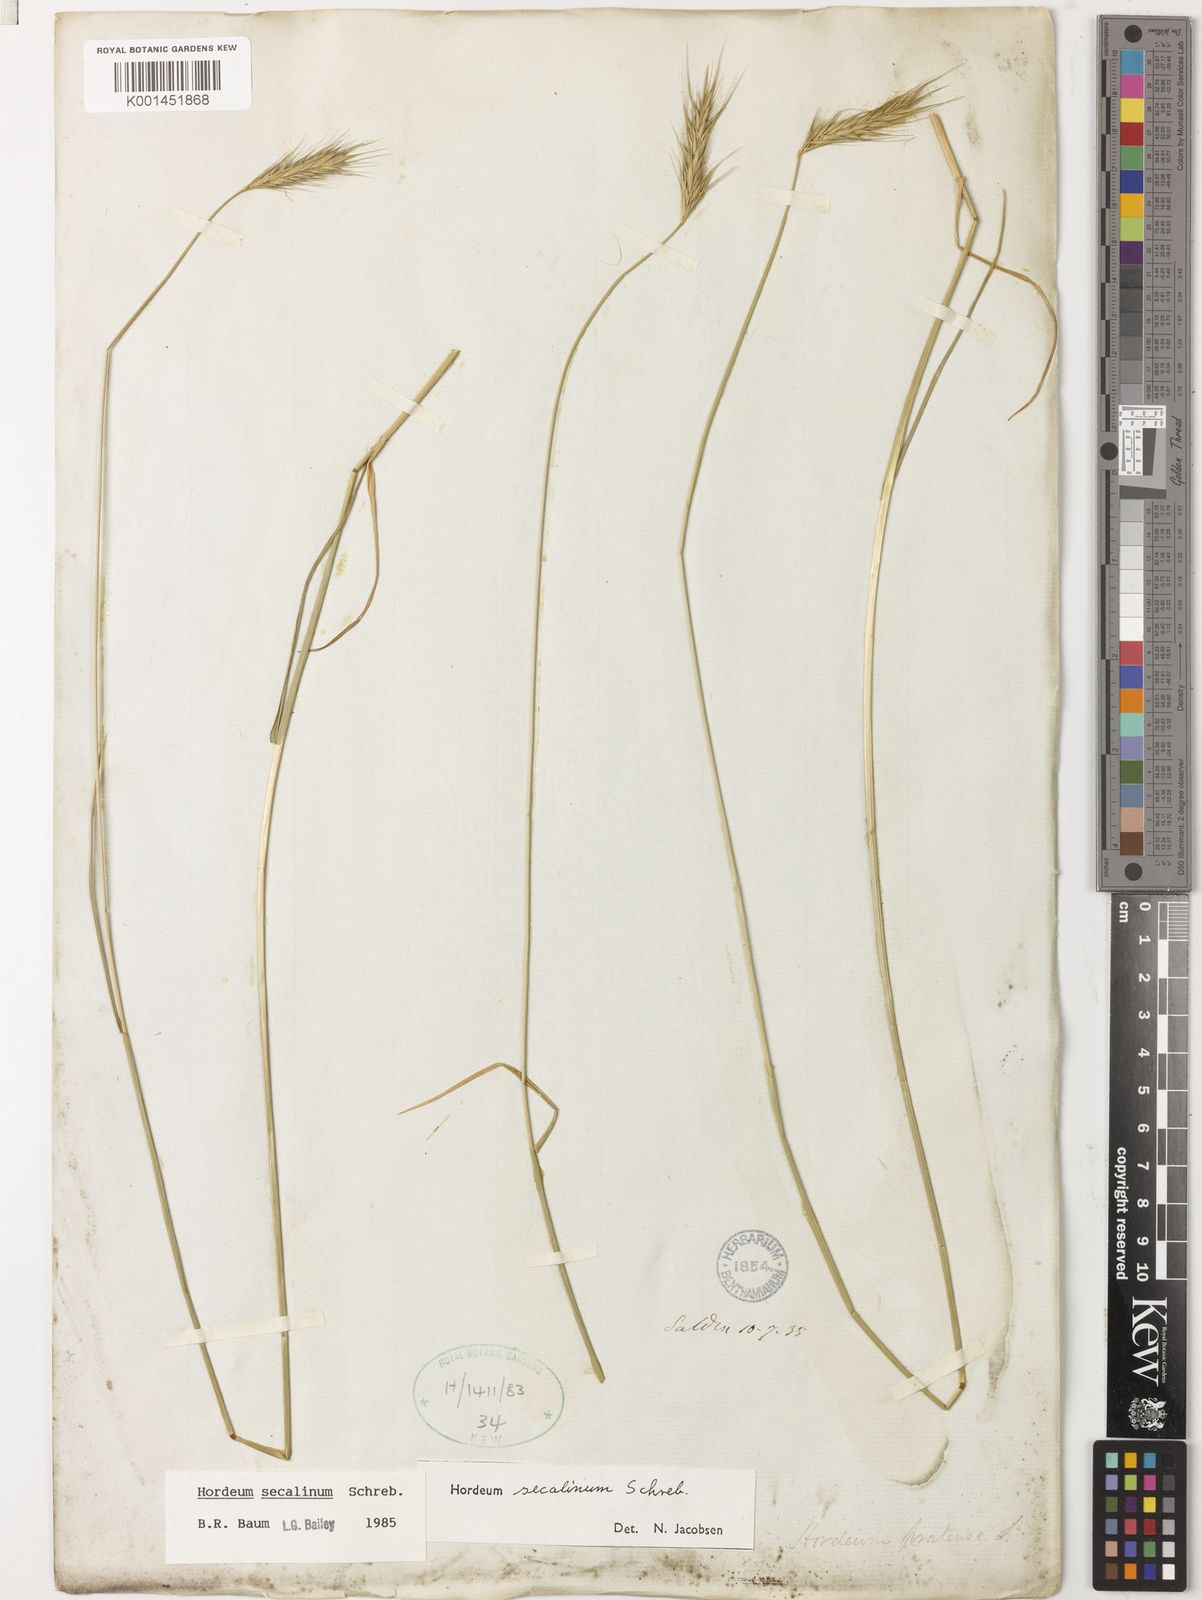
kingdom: Plantae
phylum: Tracheophyta
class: Liliopsida
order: Poales
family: Poaceae
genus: Hordeum
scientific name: Hordeum secalinum
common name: Meadow barley
